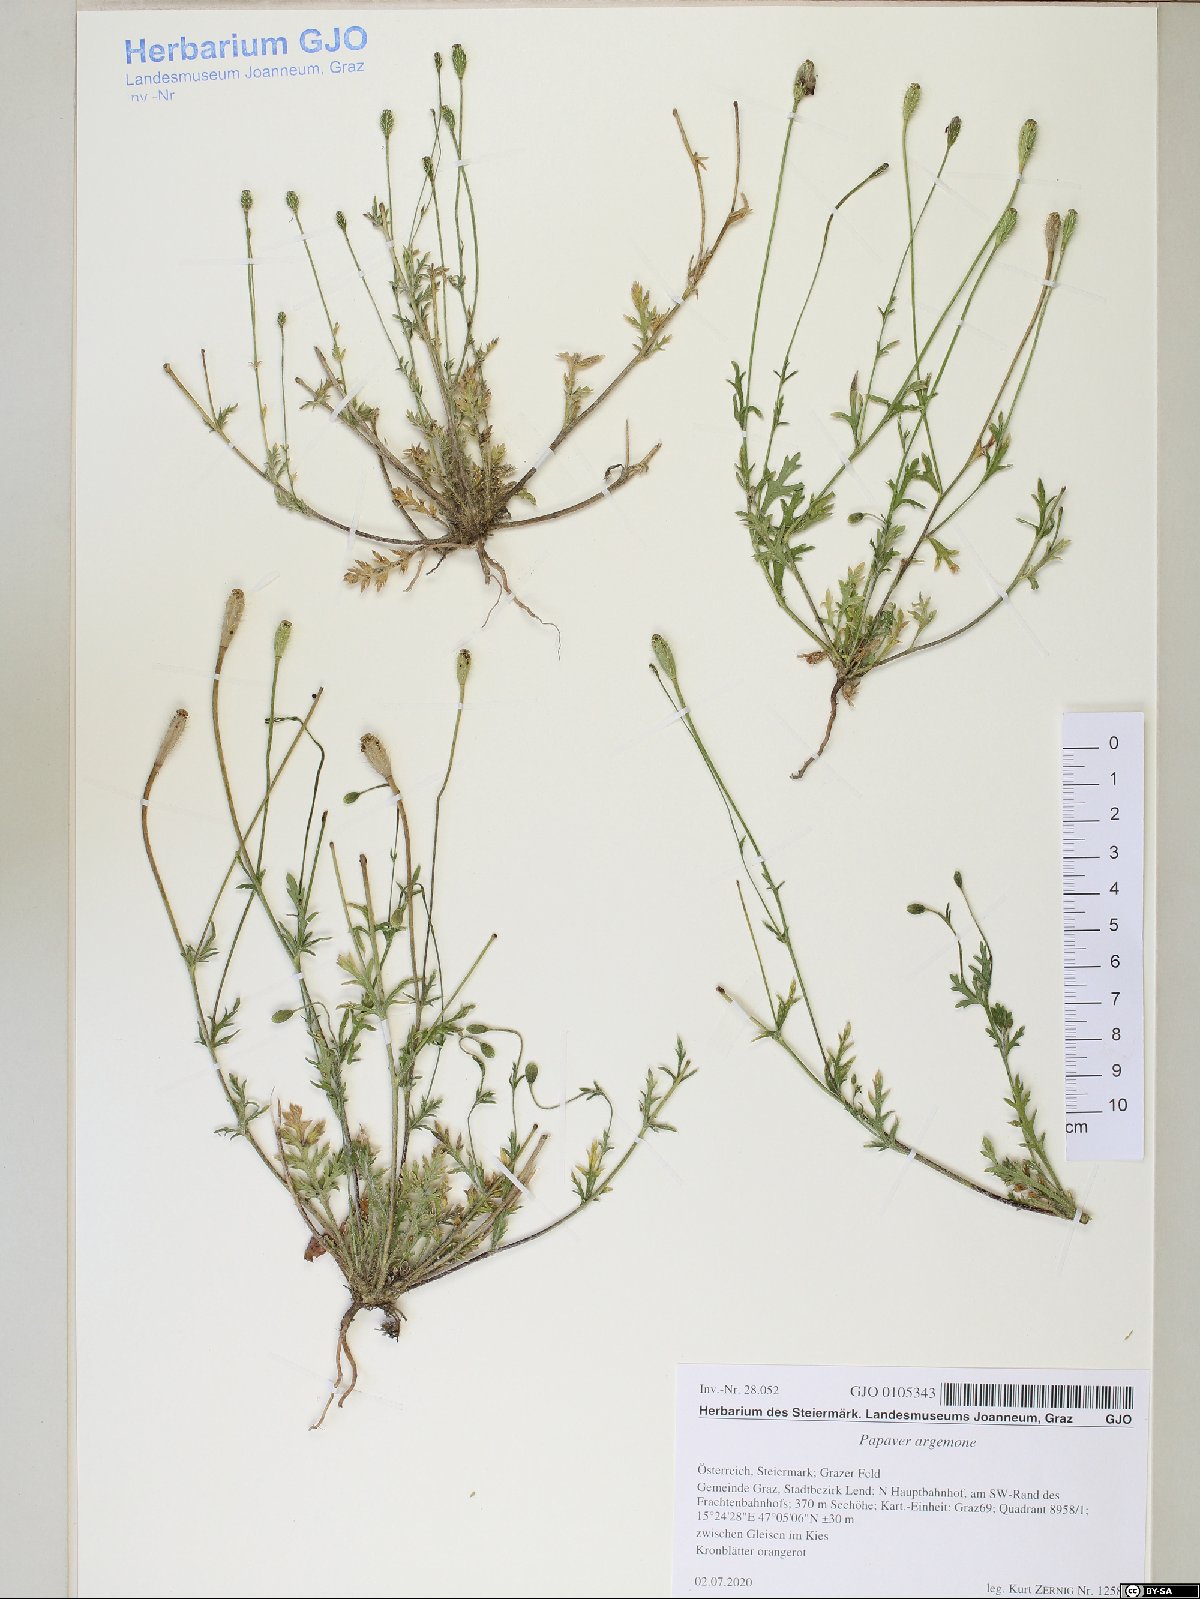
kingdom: Plantae
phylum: Tracheophyta
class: Magnoliopsida
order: Ranunculales
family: Papaveraceae
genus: Roemeria
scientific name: Roemeria argemone
